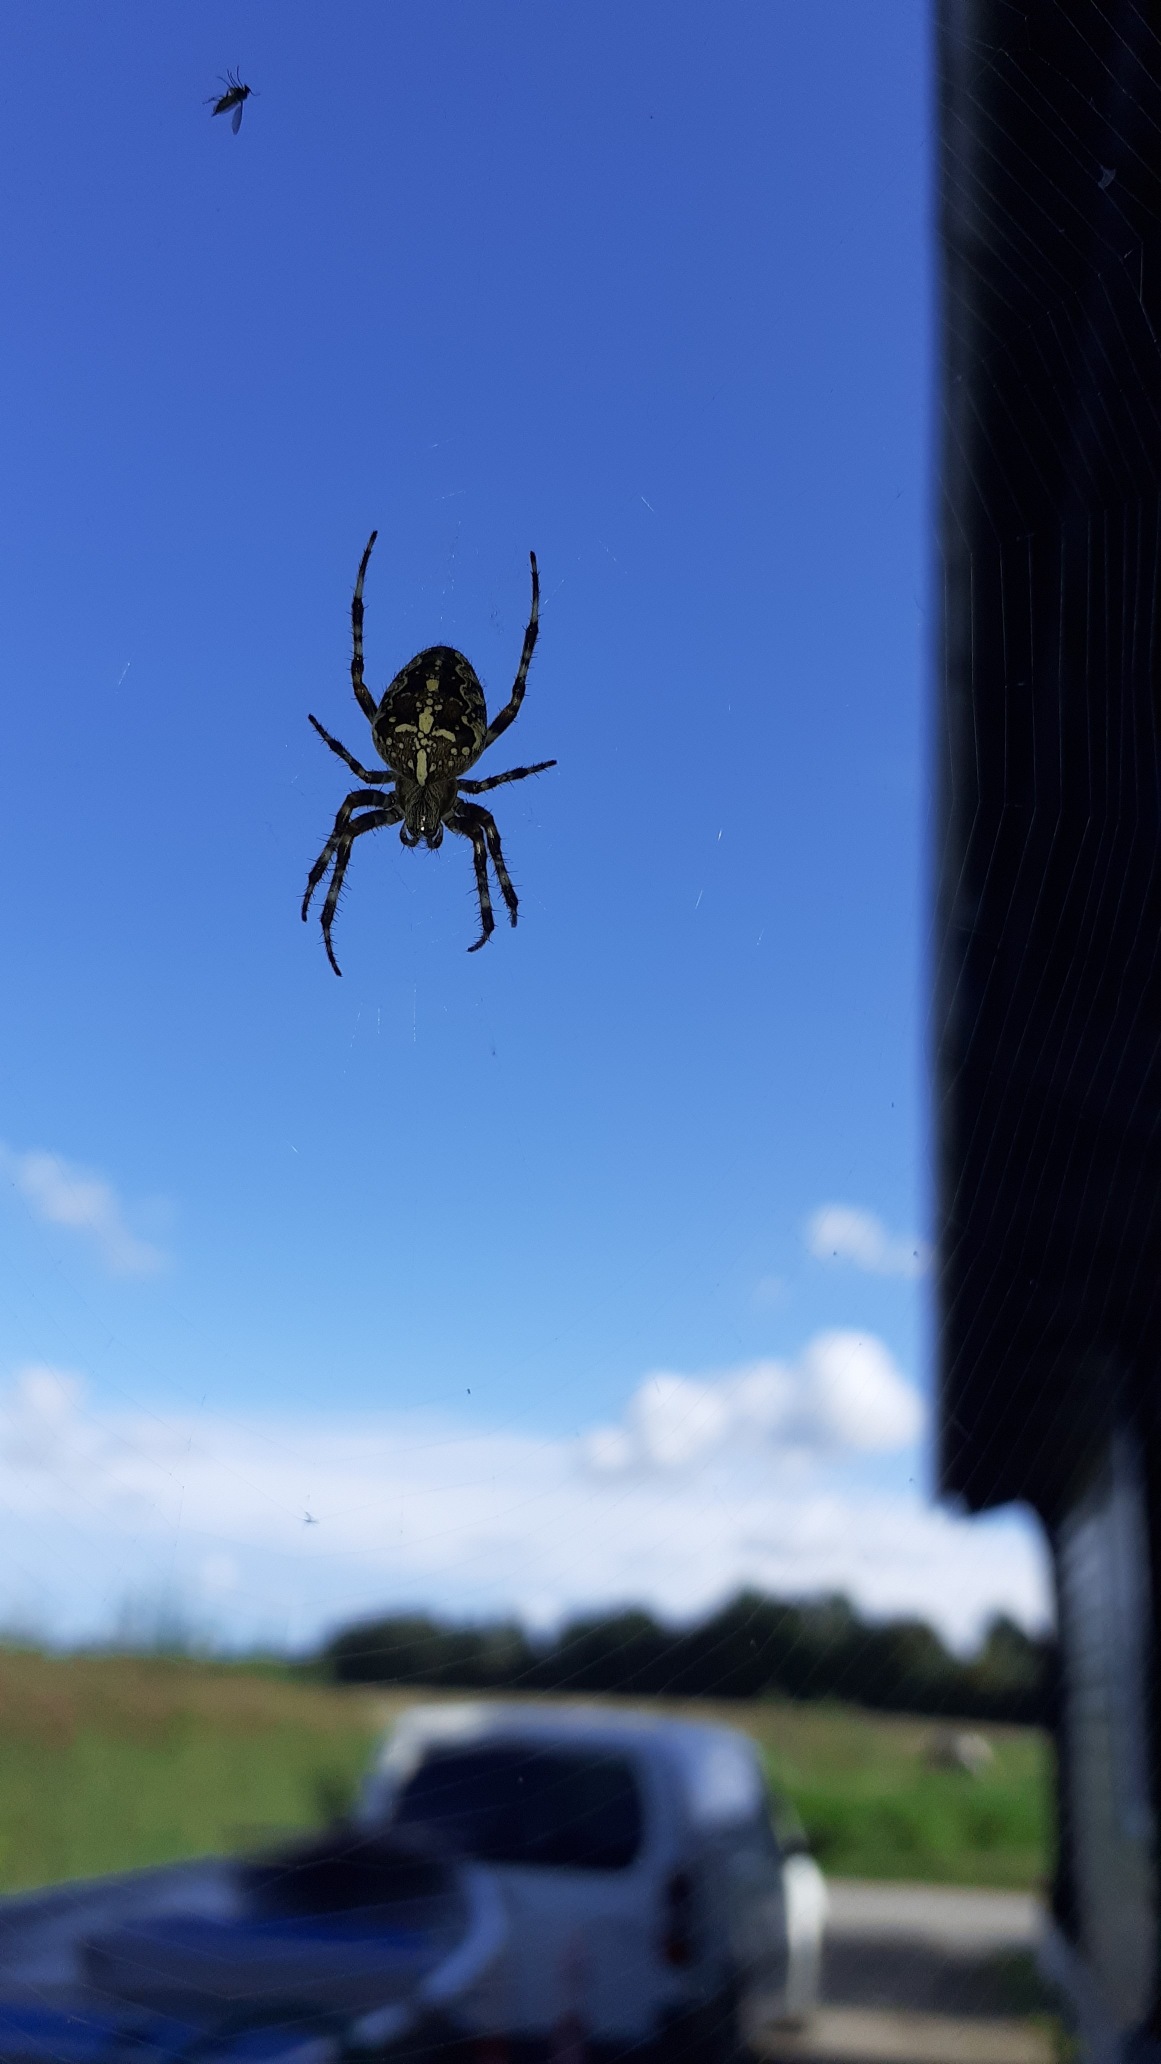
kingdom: Animalia
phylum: Arthropoda
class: Arachnida
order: Araneae
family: Araneidae
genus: Araneus
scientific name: Araneus diadematus
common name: Korsedderkop
